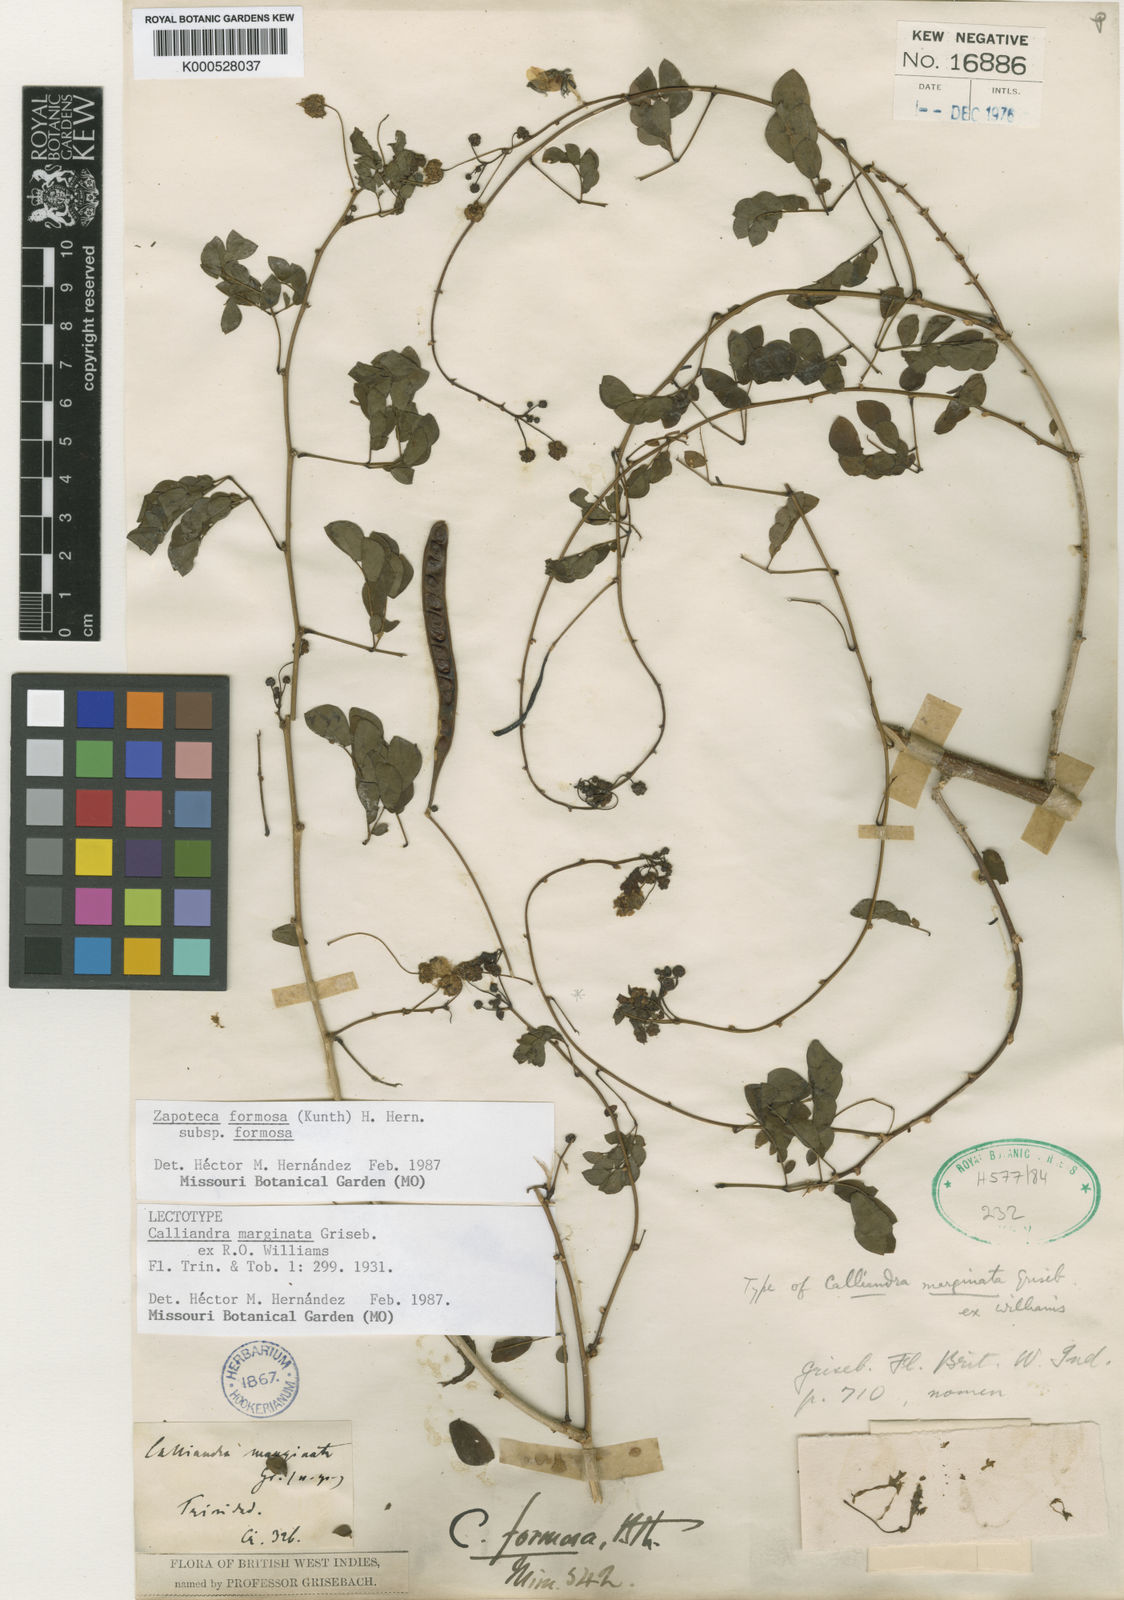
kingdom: Plantae
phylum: Tracheophyta
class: Magnoliopsida
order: Fabales
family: Fabaceae
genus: Zapoteca
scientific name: Zapoteca formosa
